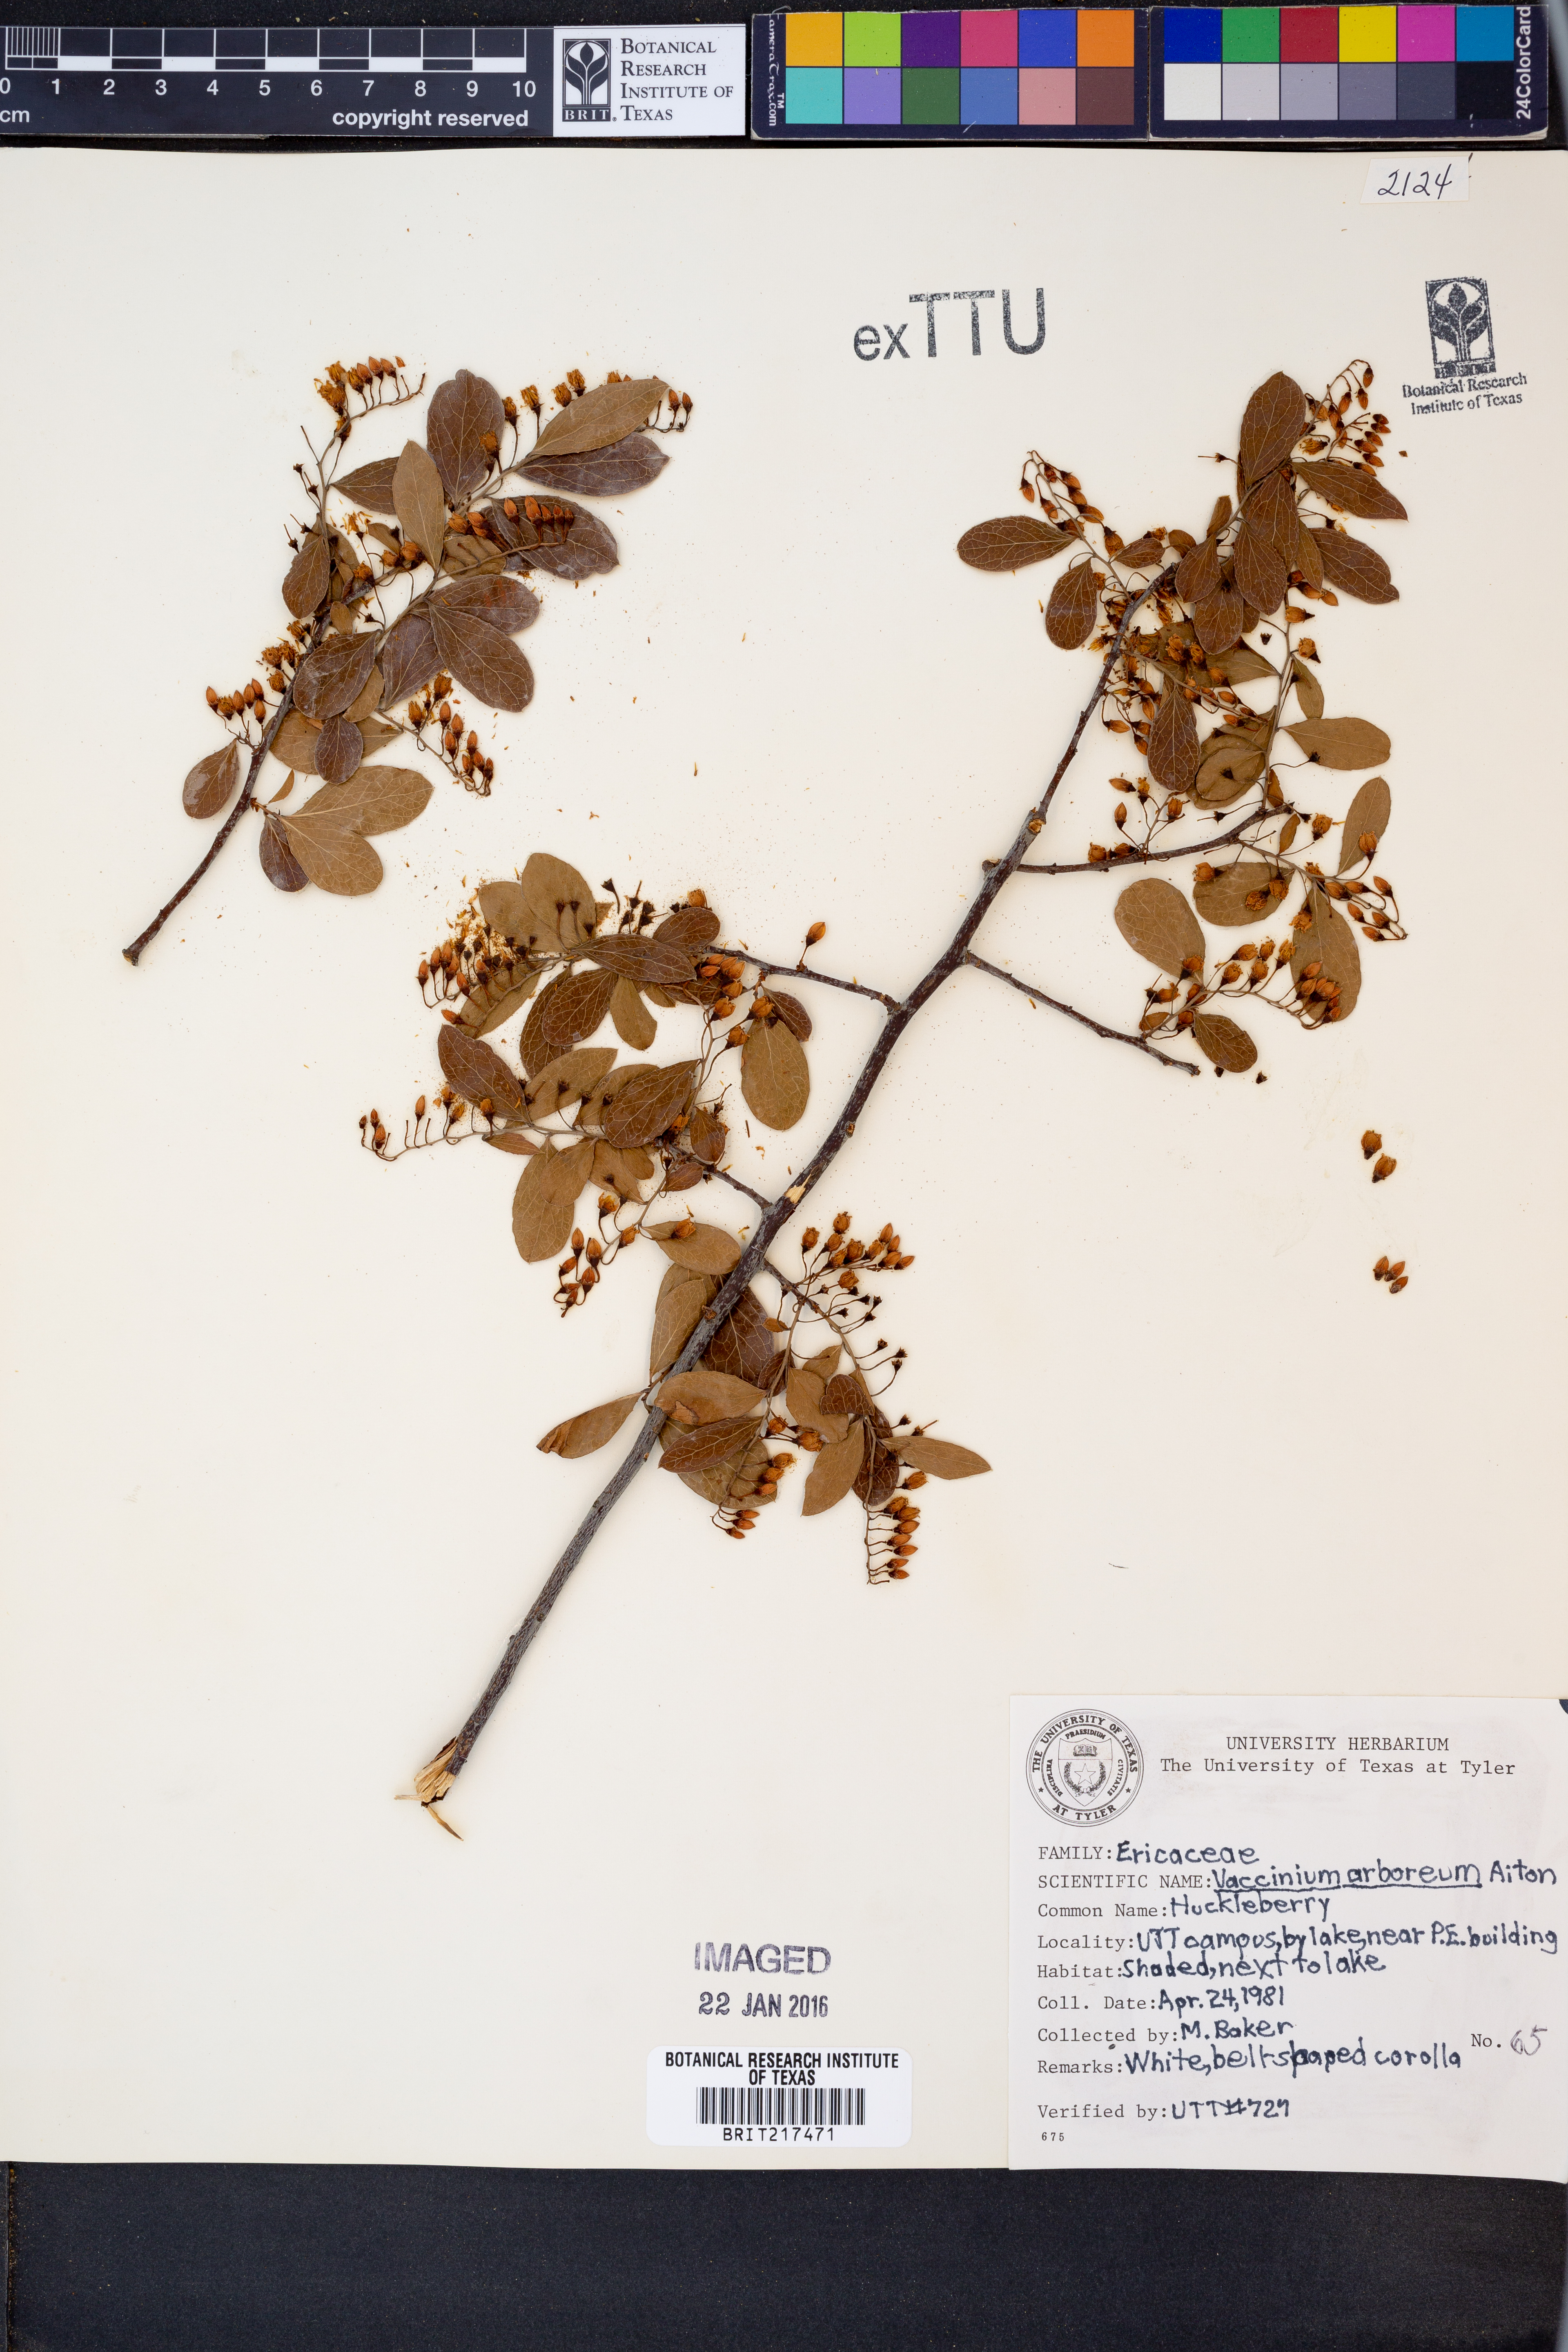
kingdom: Plantae
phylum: Tracheophyta
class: Magnoliopsida
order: Ericales
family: Ericaceae
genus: Vaccinium
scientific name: Vaccinium arboreum
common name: Farkleberry
